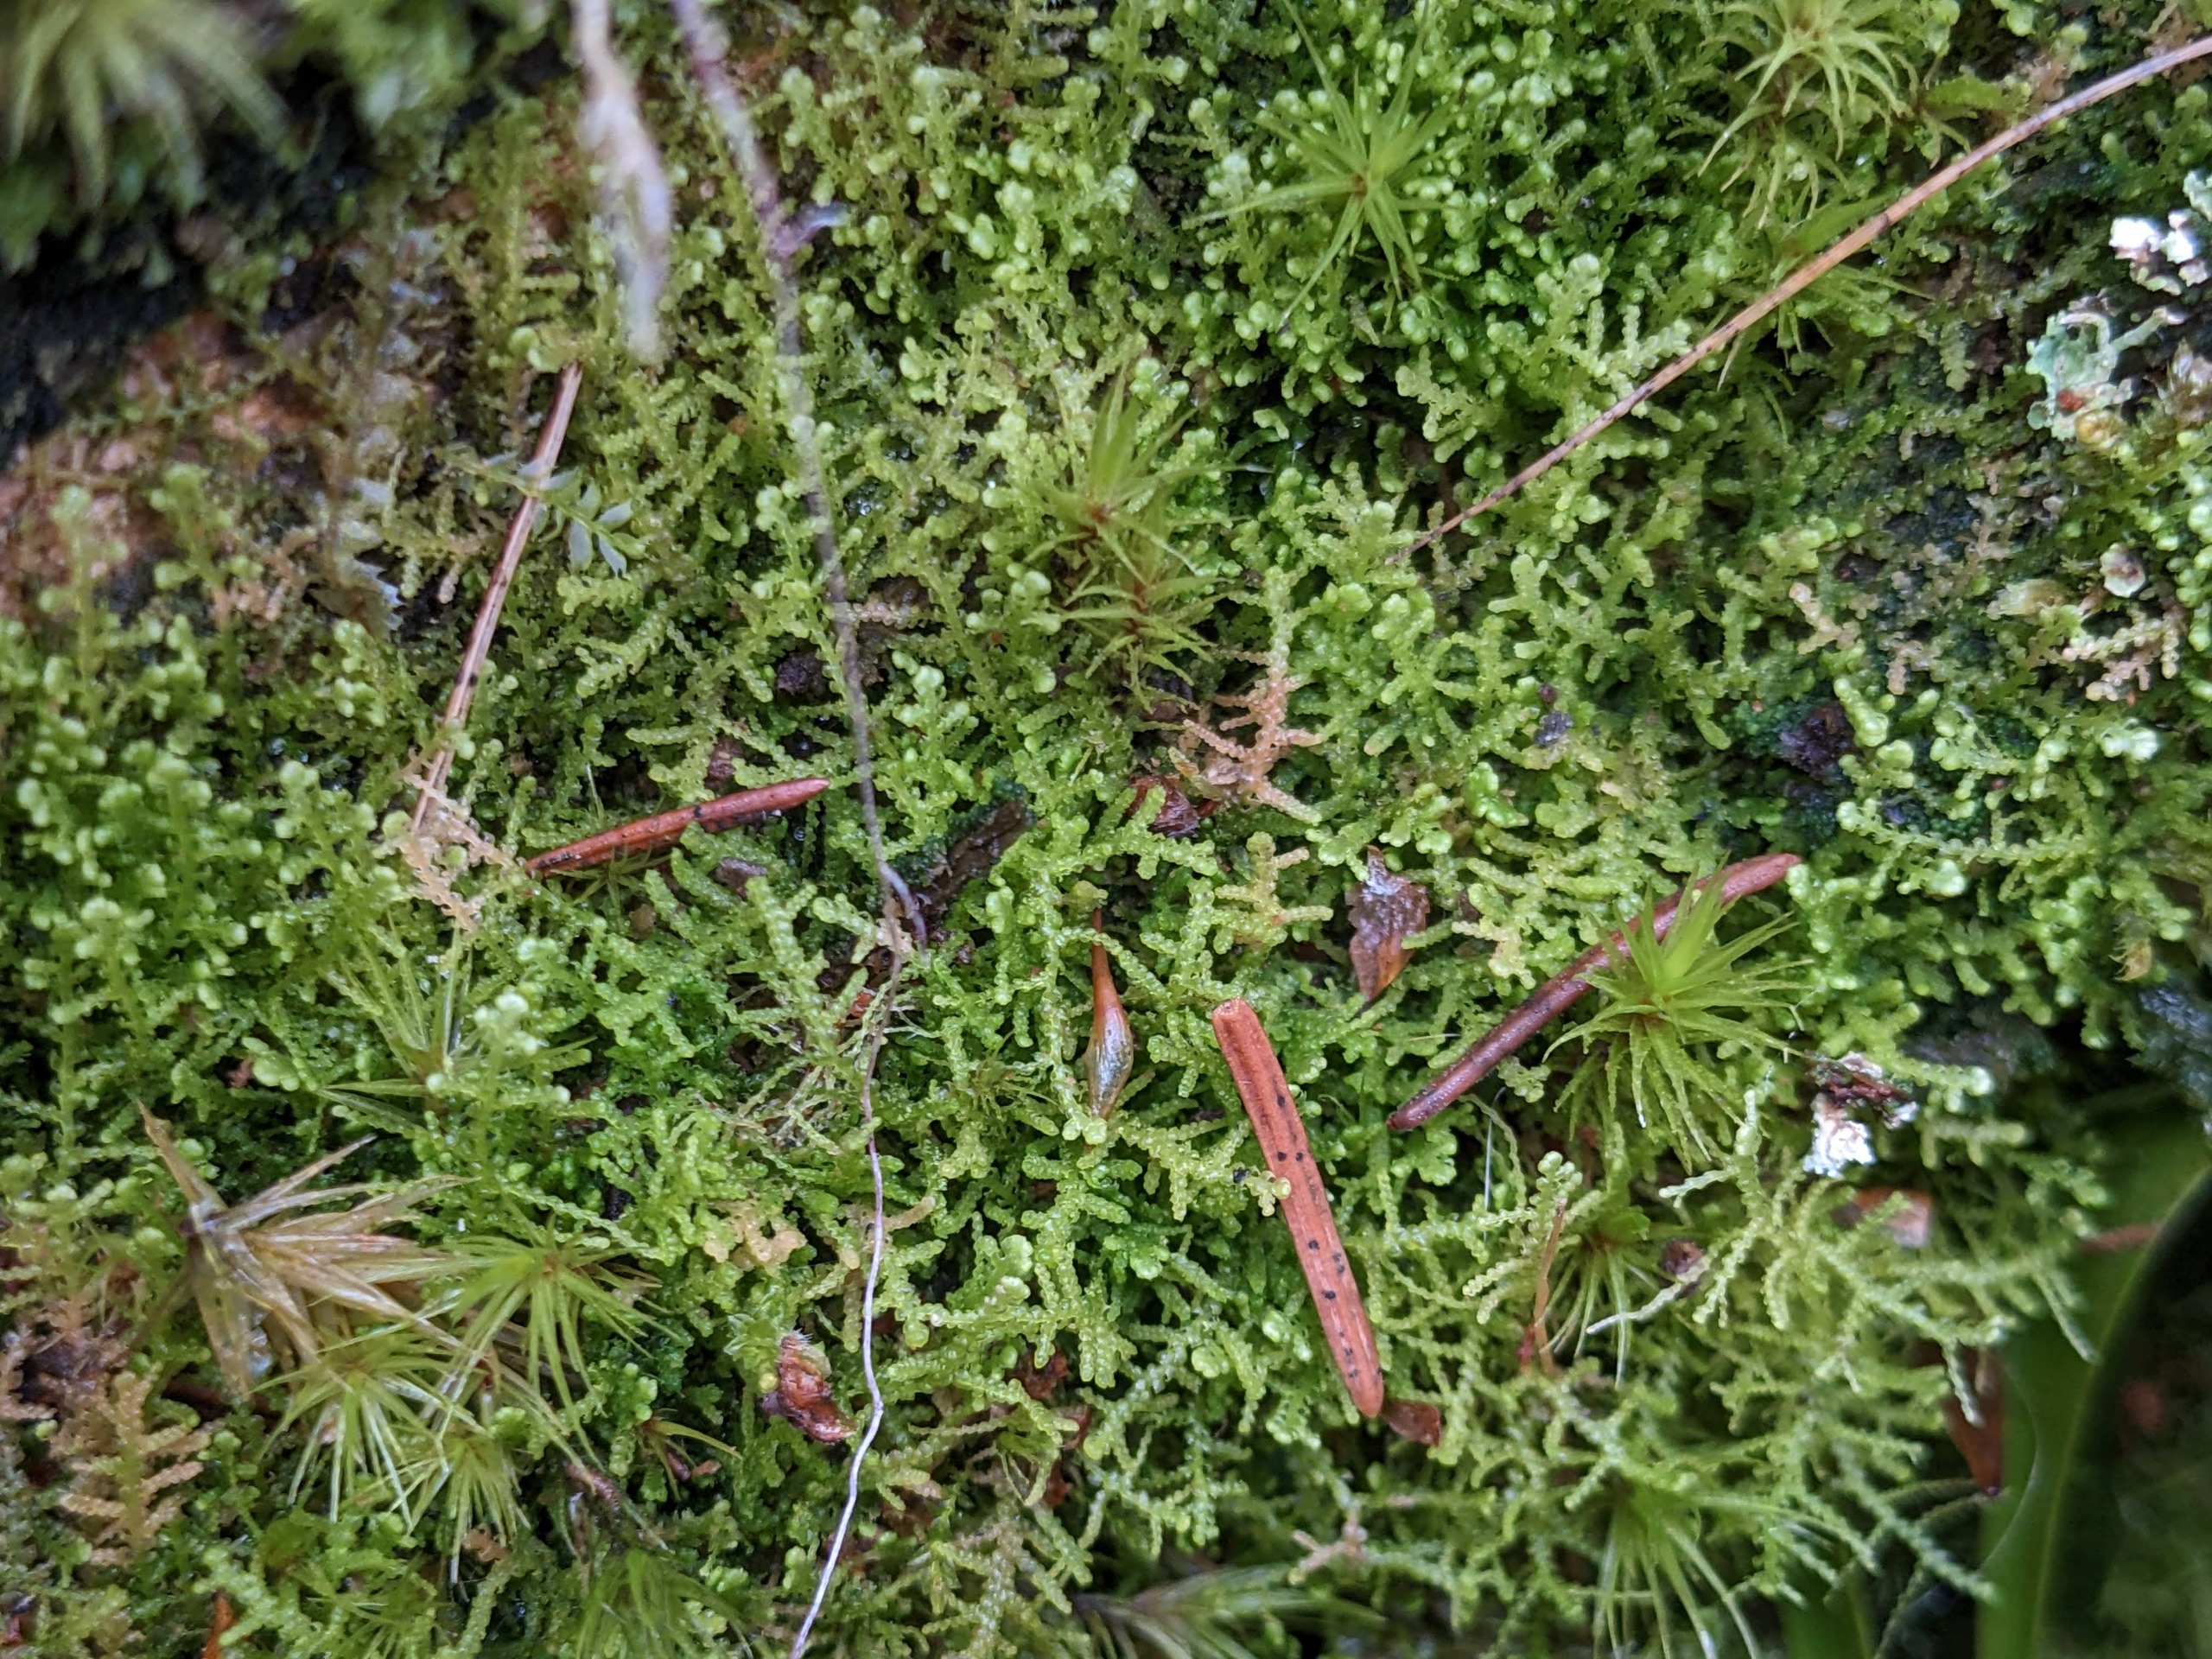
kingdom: Plantae
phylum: Marchantiophyta
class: Jungermanniopsida
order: Jungermanniales
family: Lepidoziaceae
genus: Lepidozia
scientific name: Lepidozia reptans
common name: Krybende fingermos
